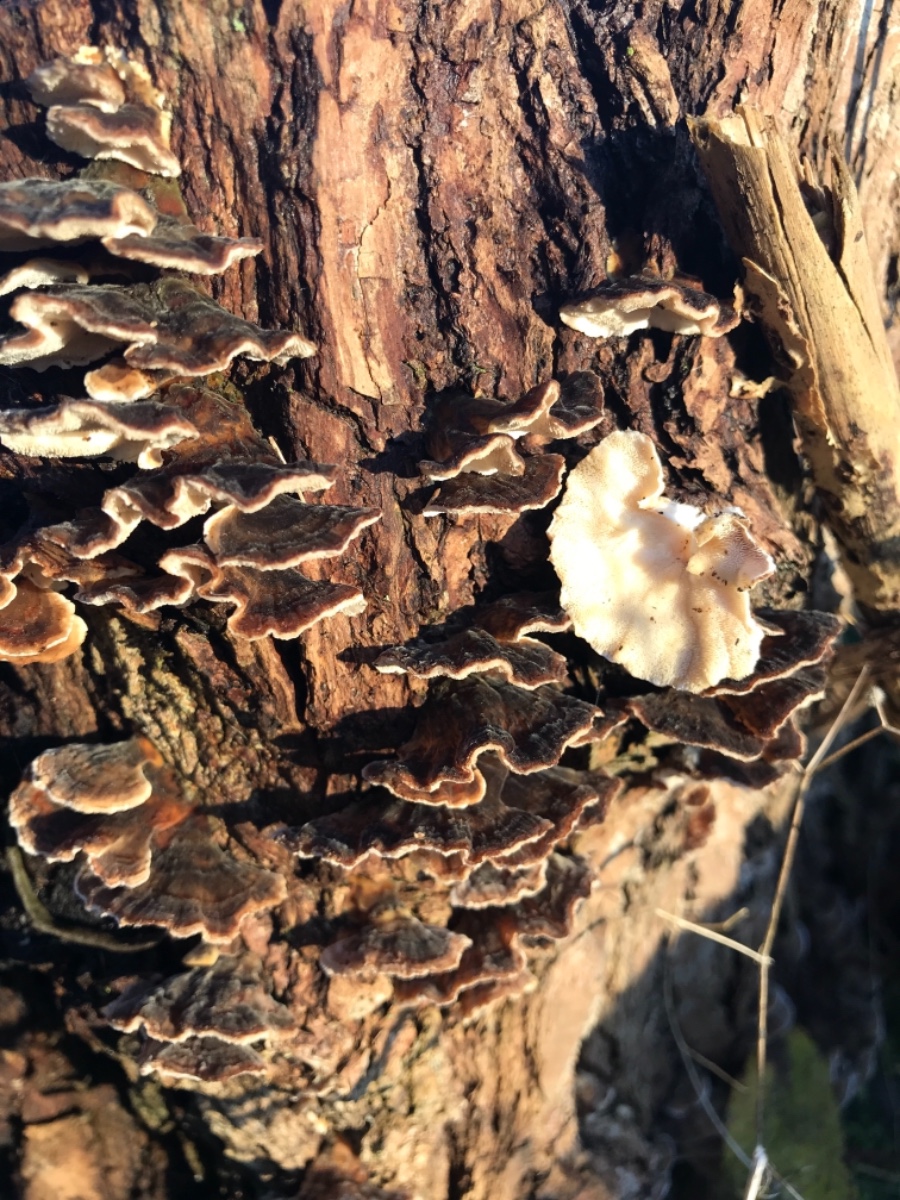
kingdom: Fungi
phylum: Basidiomycota
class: Agaricomycetes
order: Polyporales
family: Polyporaceae
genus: Trametes
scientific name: Trametes versicolor
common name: broget læderporesvamp
